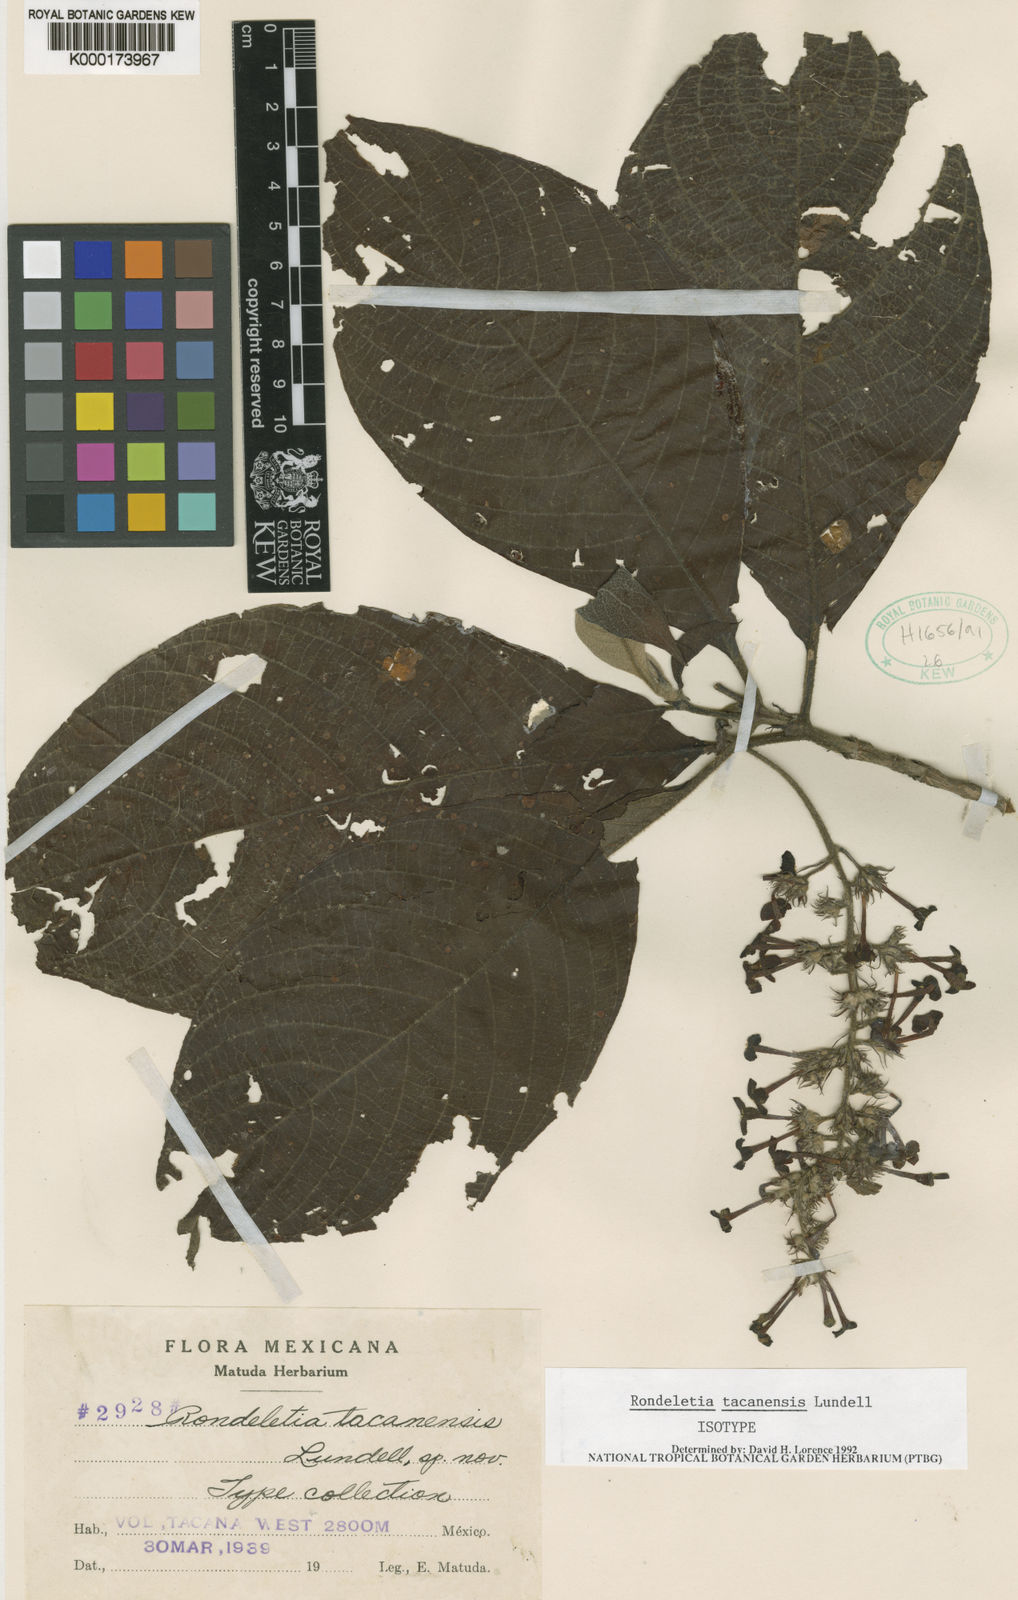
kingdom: Plantae
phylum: Tracheophyta
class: Magnoliopsida
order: Gentianales
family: Rubiaceae
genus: Arachnothryx
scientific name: Arachnothryx tacanensis
